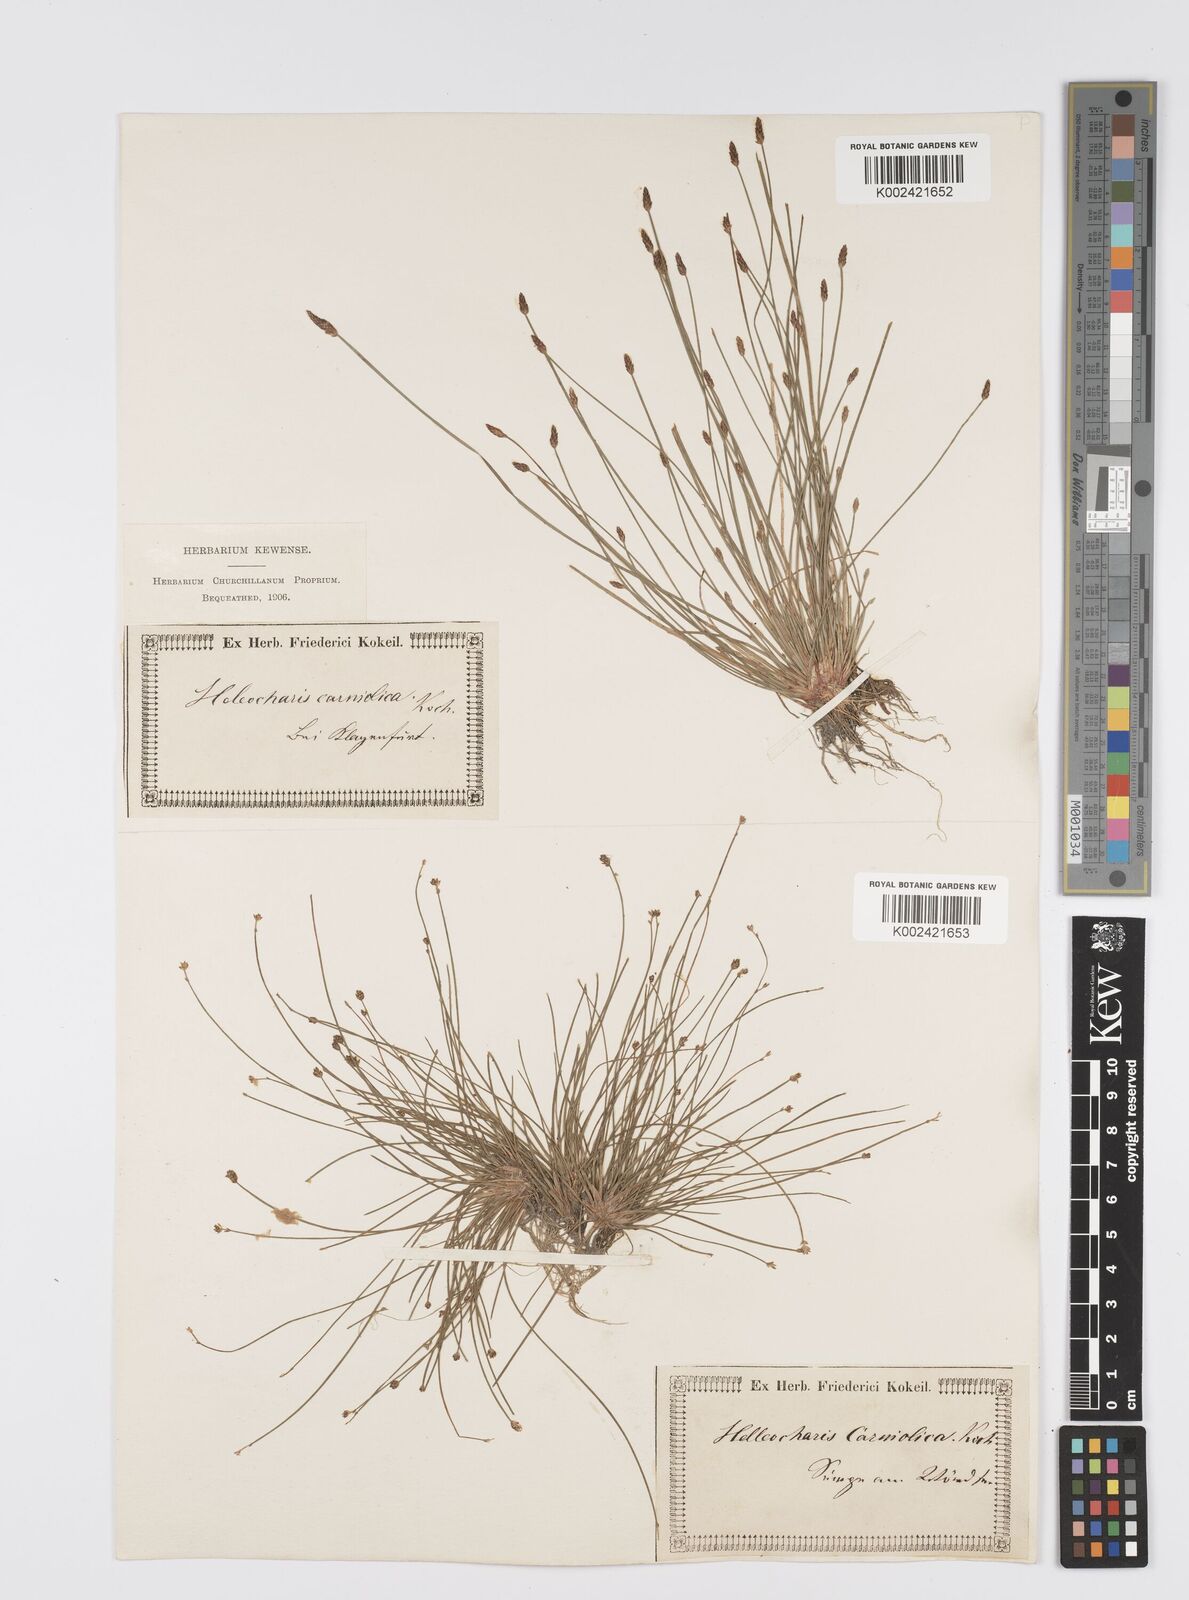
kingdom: Plantae
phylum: Tracheophyta
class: Liliopsida
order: Poales
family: Cyperaceae
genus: Eleocharis
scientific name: Eleocharis carniolica
